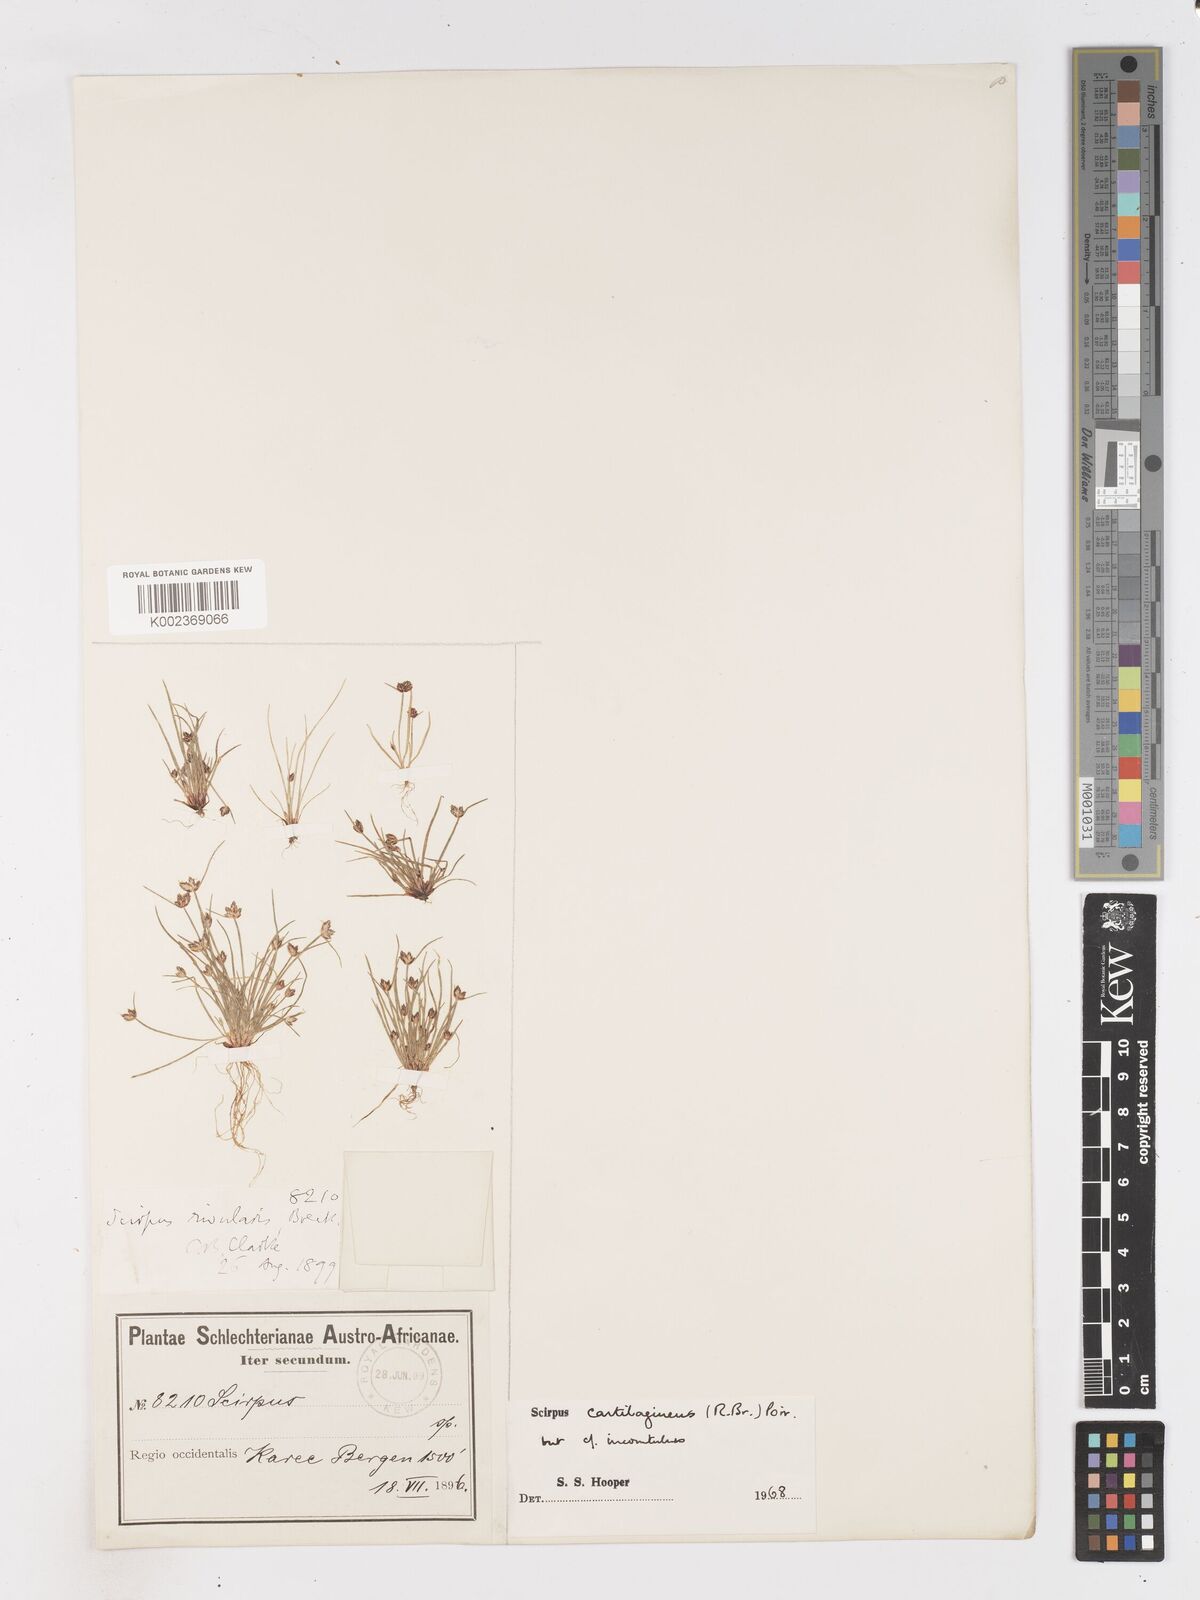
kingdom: Plantae
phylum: Tracheophyta
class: Liliopsida
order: Poales
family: Cyperaceae
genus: Isolepis
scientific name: Isolepis diabolica
